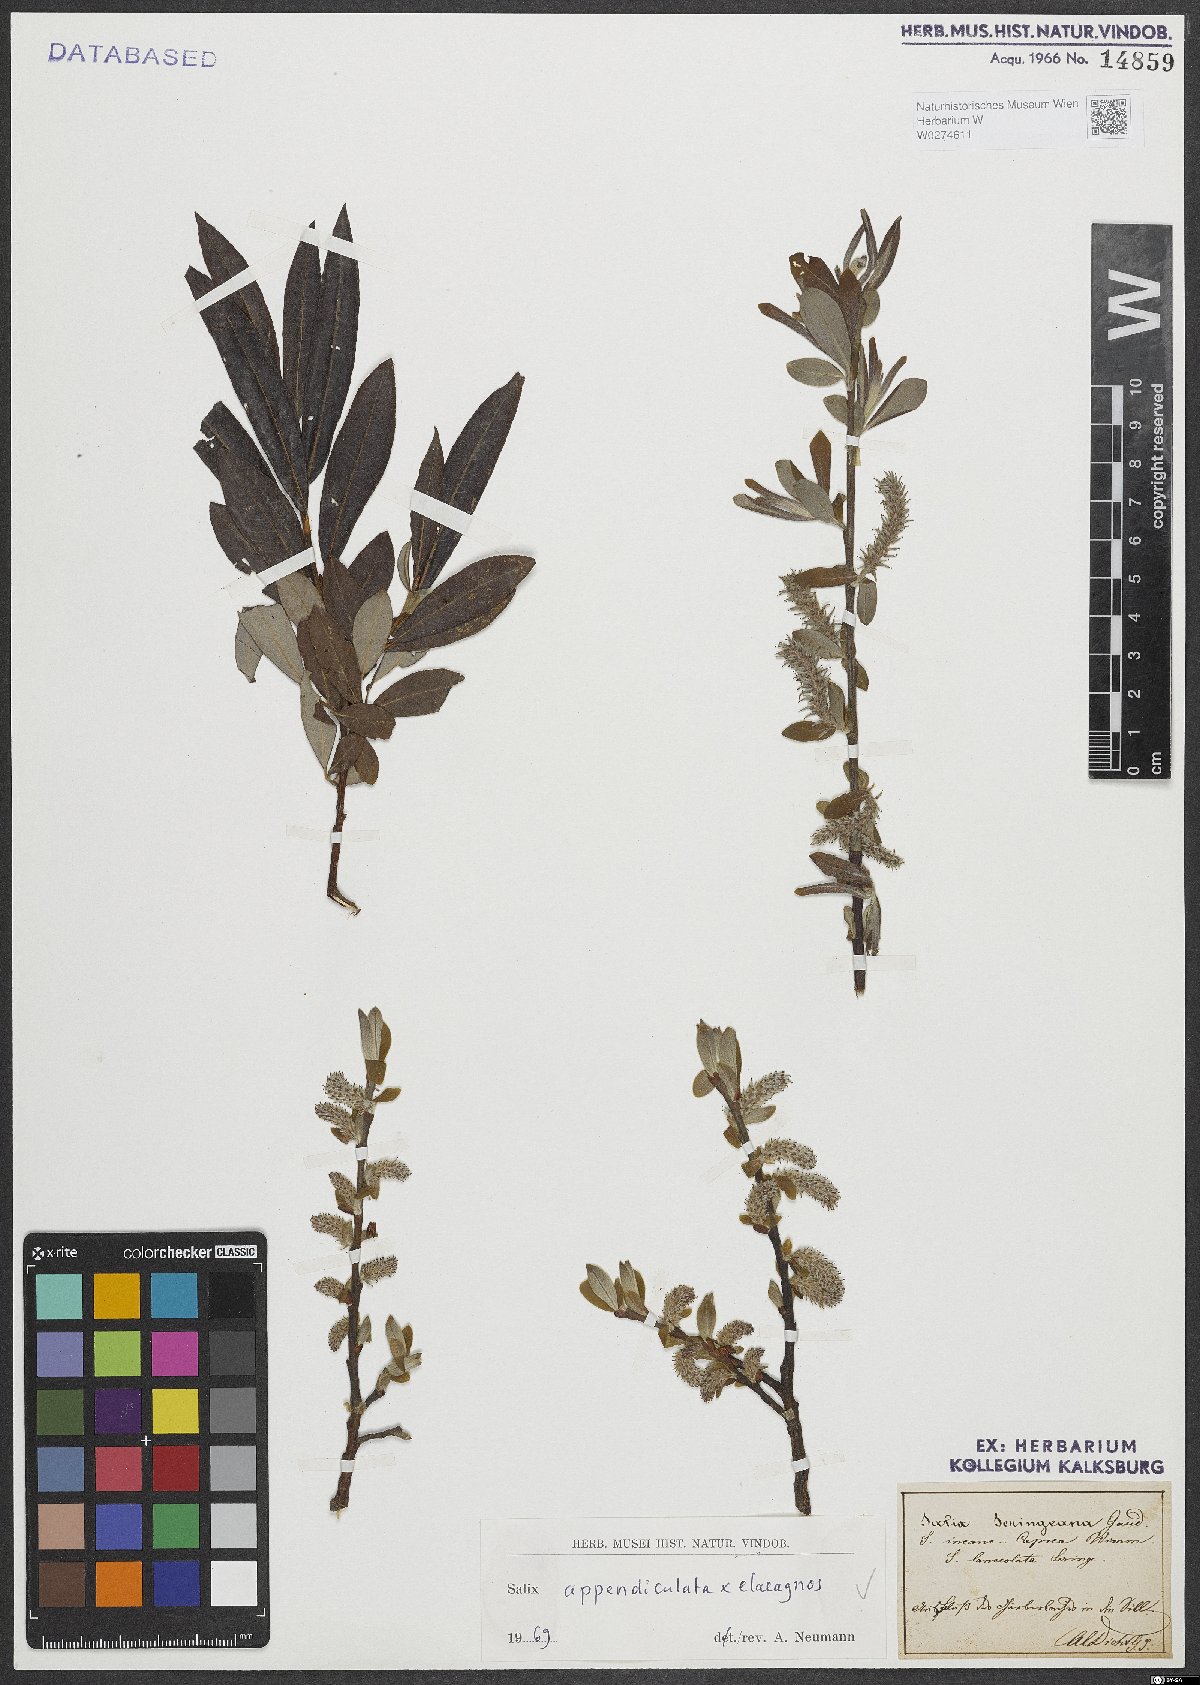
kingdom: Plantae
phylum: Tracheophyta
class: Magnoliopsida
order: Malpighiales
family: Salicaceae
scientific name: Salicaceae
